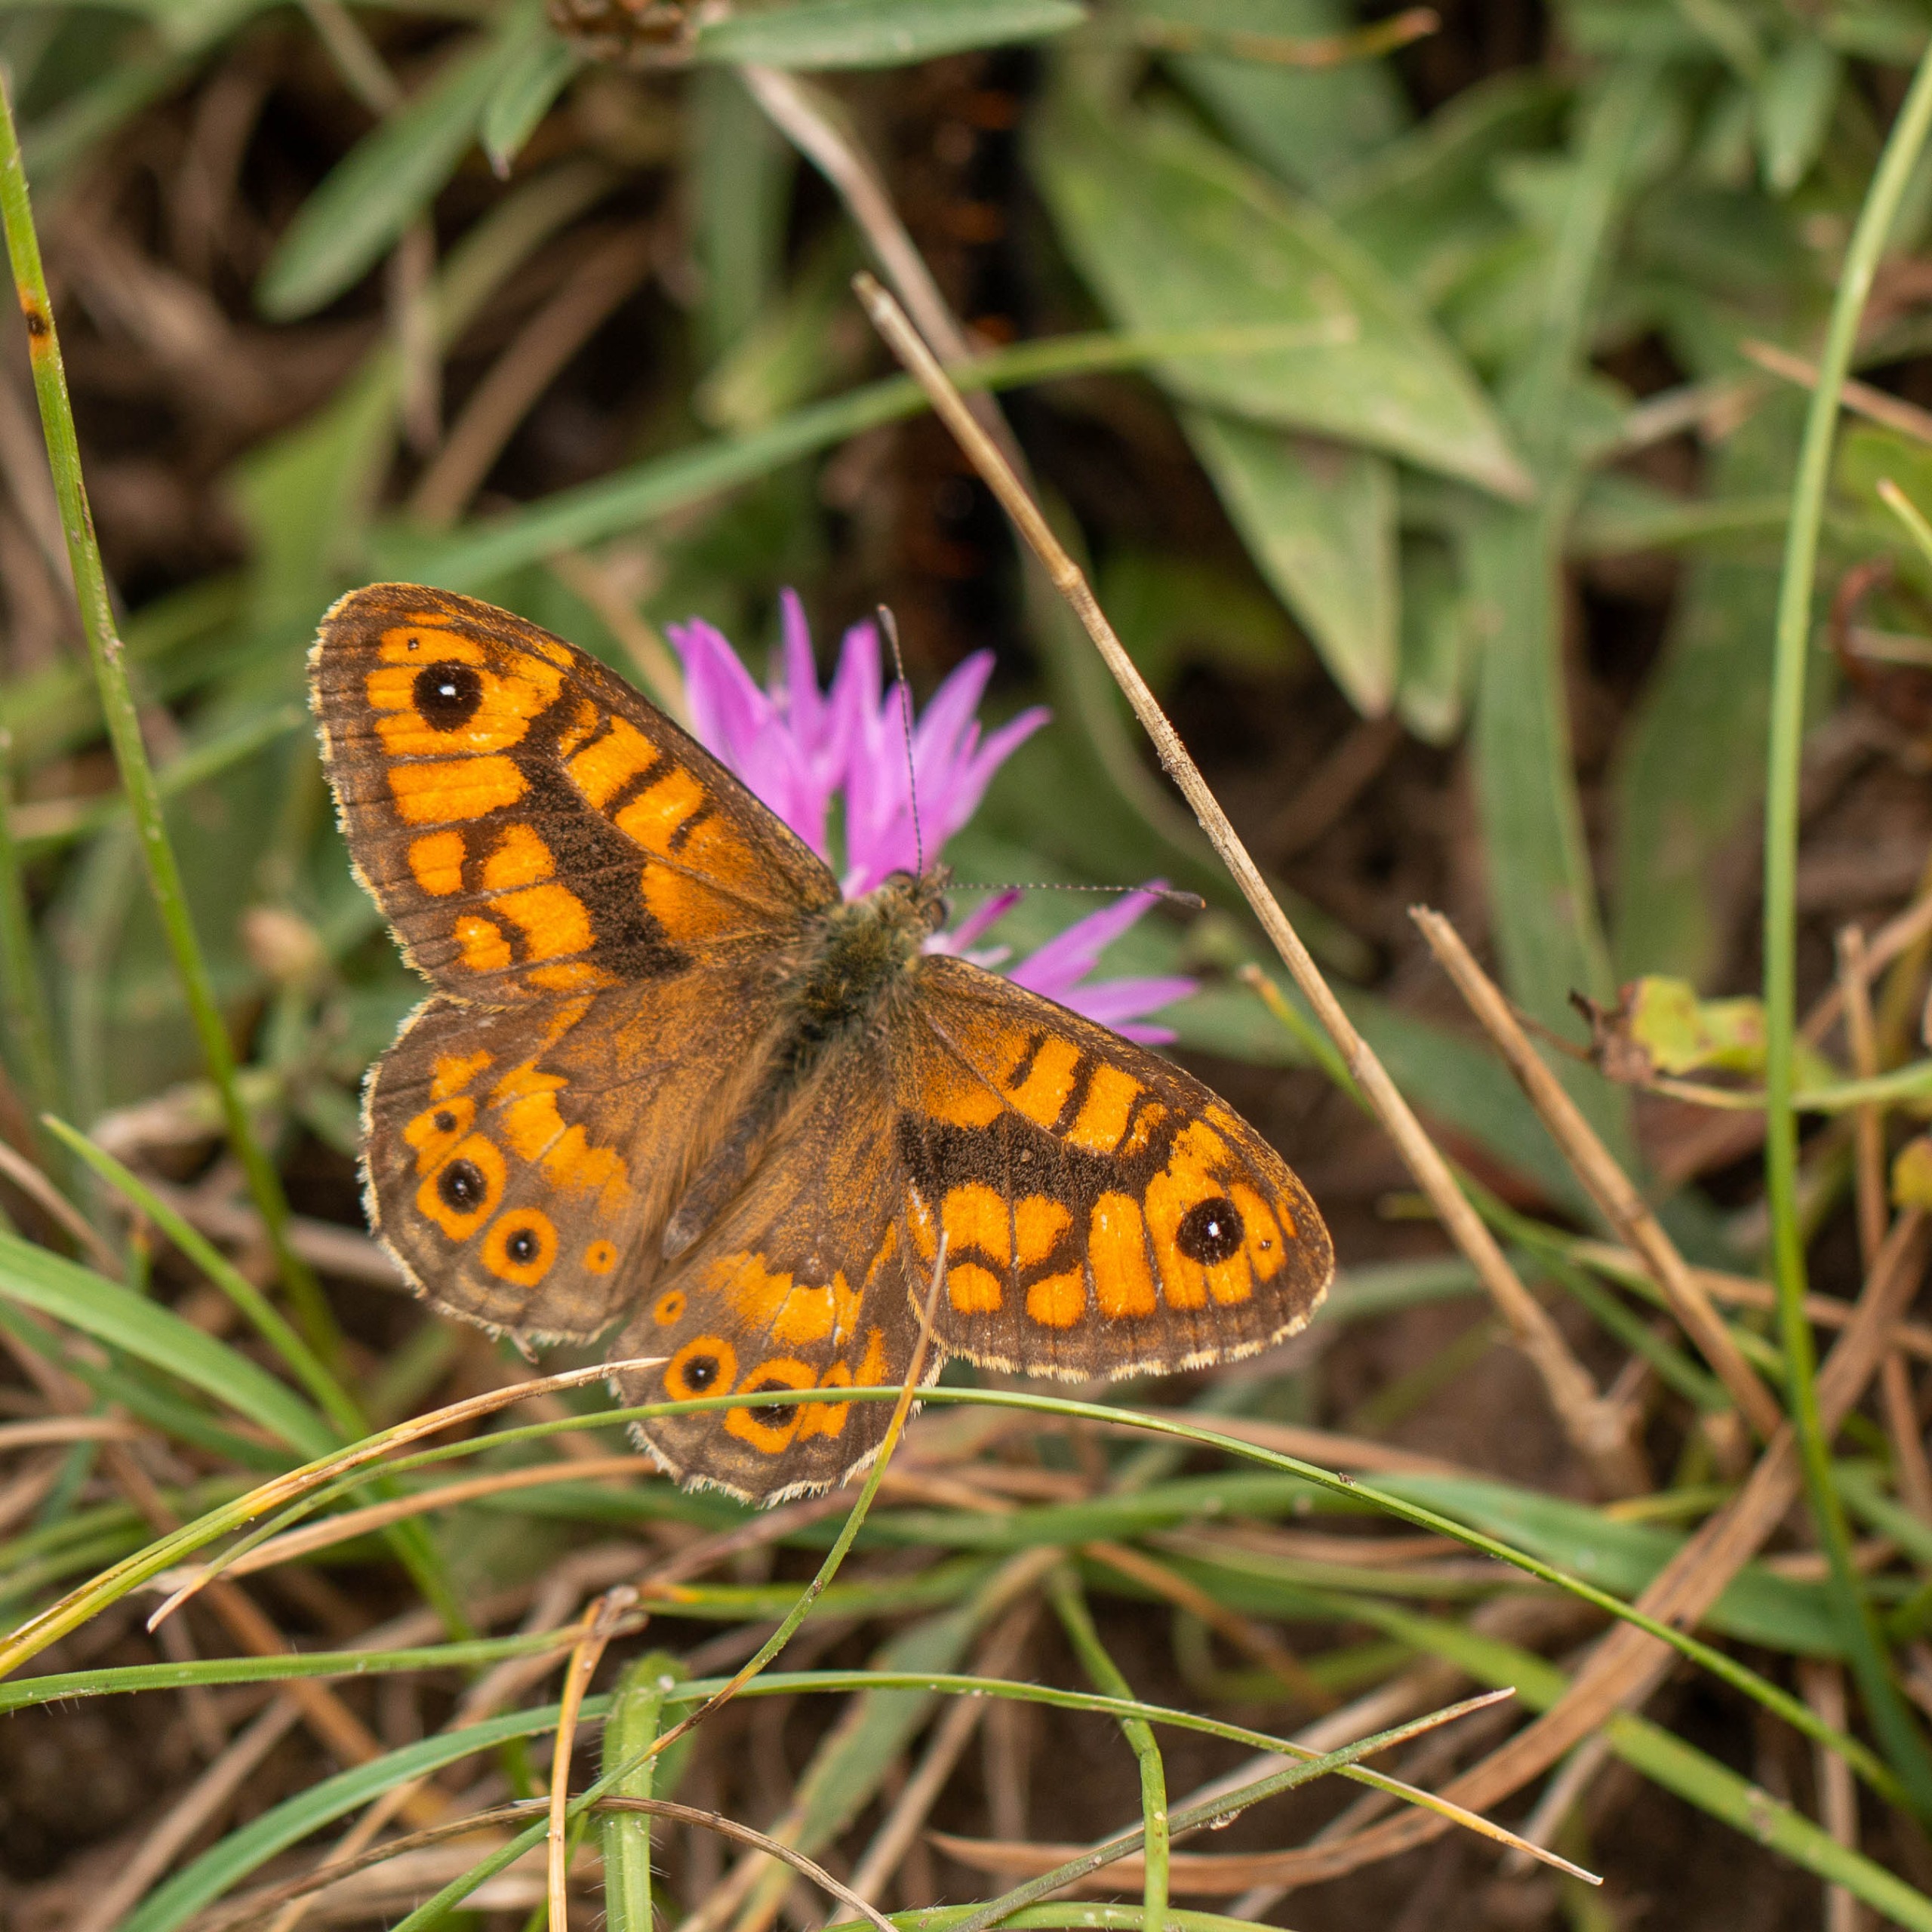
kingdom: Animalia
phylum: Arthropoda
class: Insecta
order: Lepidoptera
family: Nymphalidae
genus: Pararge
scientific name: Pararge Lasiommata megera
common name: Vejrandøje
